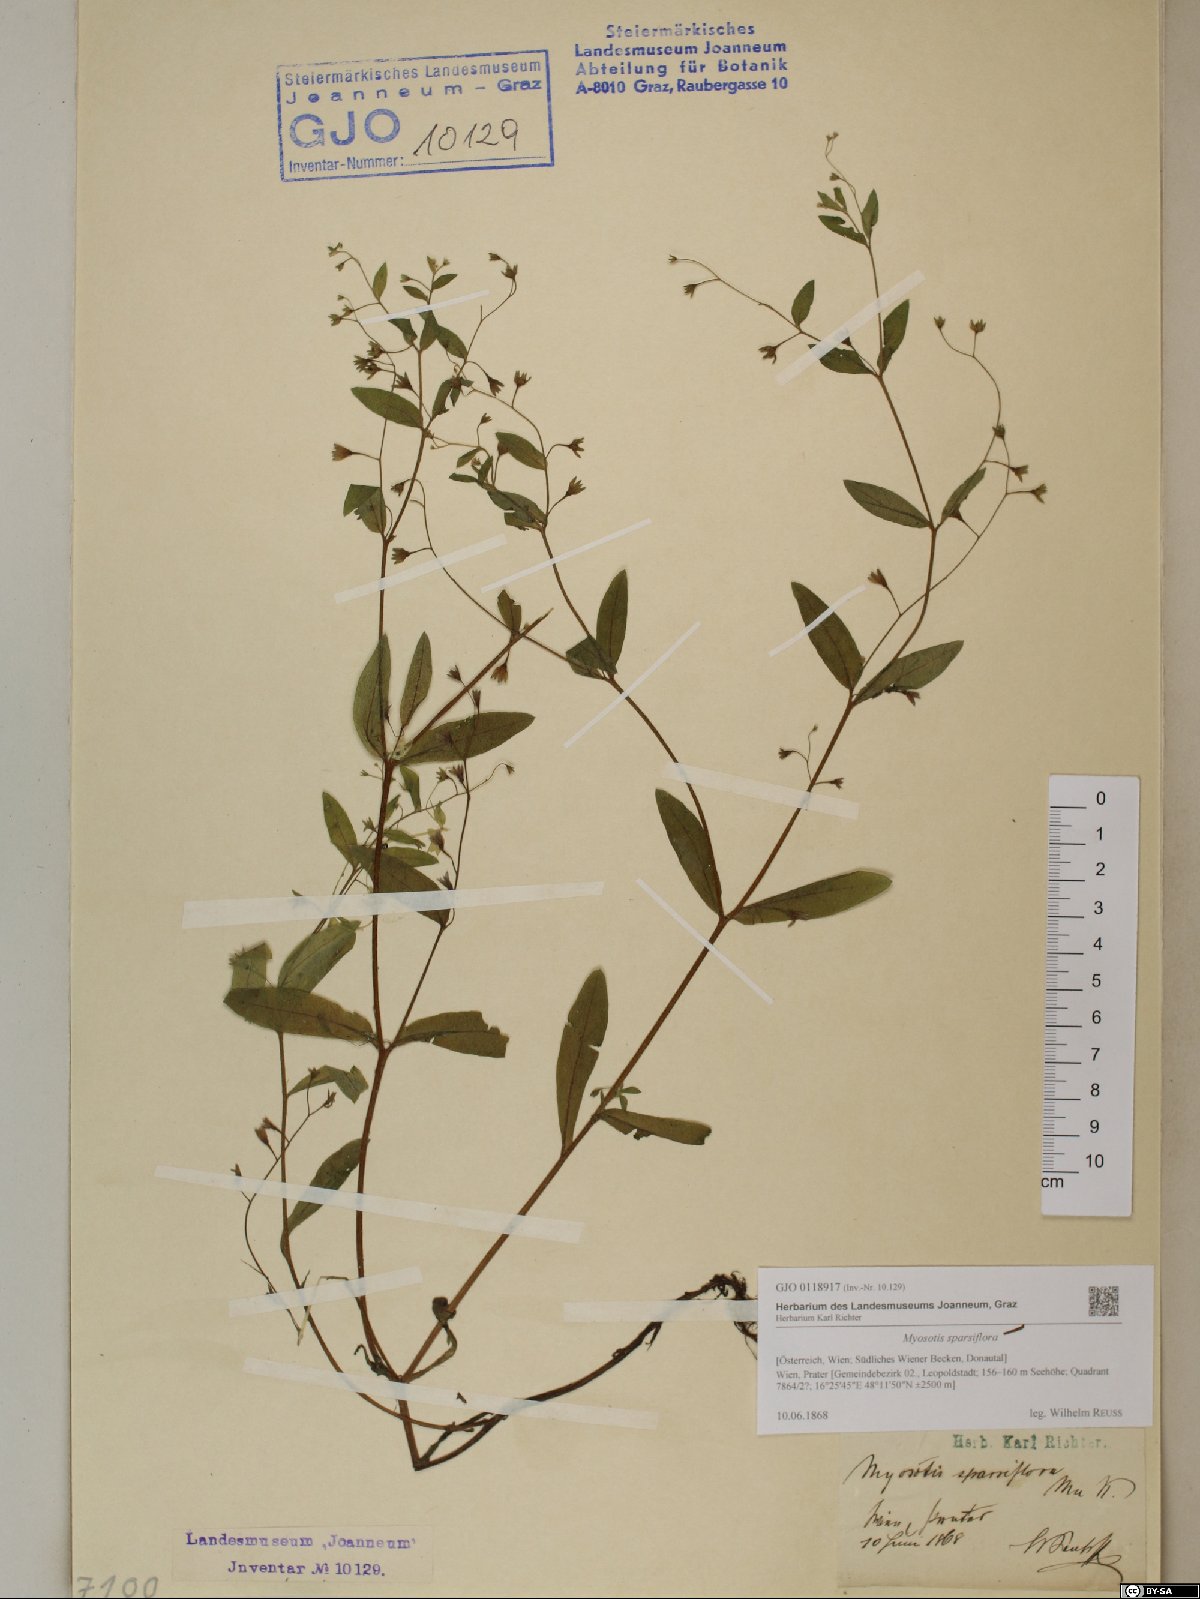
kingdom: Plantae
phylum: Tracheophyta
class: Magnoliopsida
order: Boraginales
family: Boraginaceae
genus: Myosotis
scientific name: Myosotis sparsiflora
